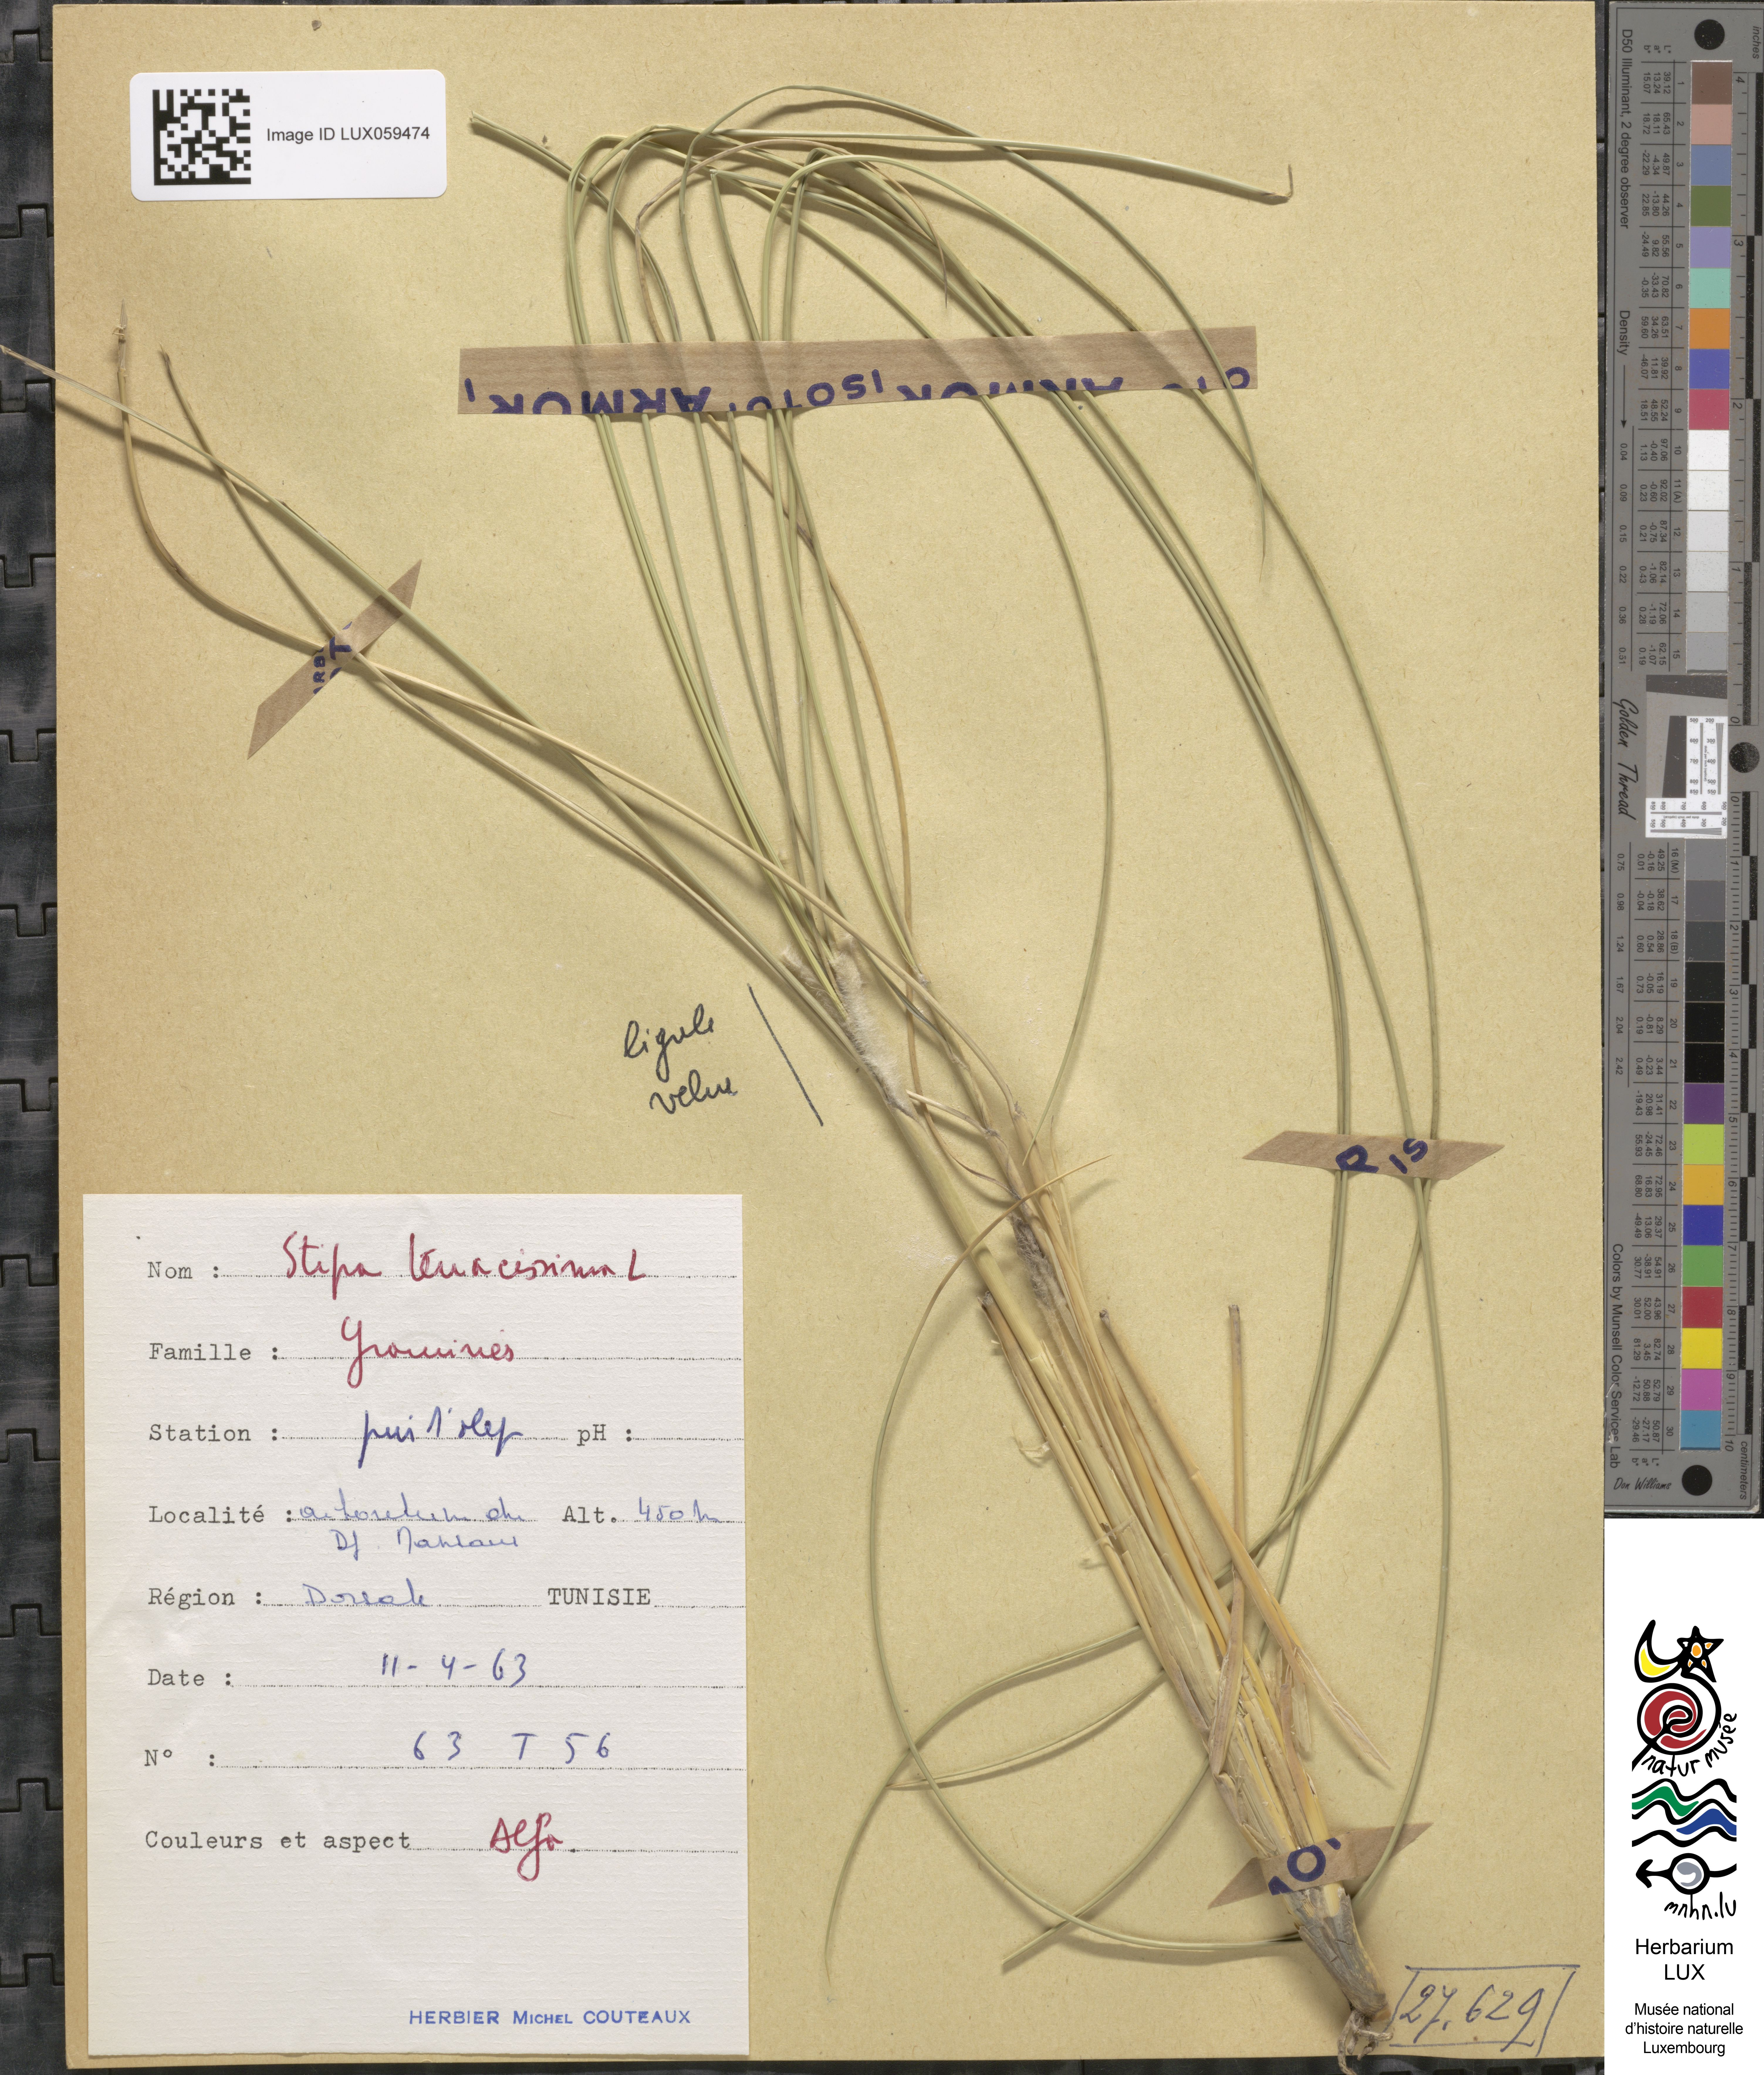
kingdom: Plantae
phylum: Tracheophyta
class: Liliopsida
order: Poales
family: Poaceae
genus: Macrochloa
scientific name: Macrochloa tenacissima
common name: Alfa grass
